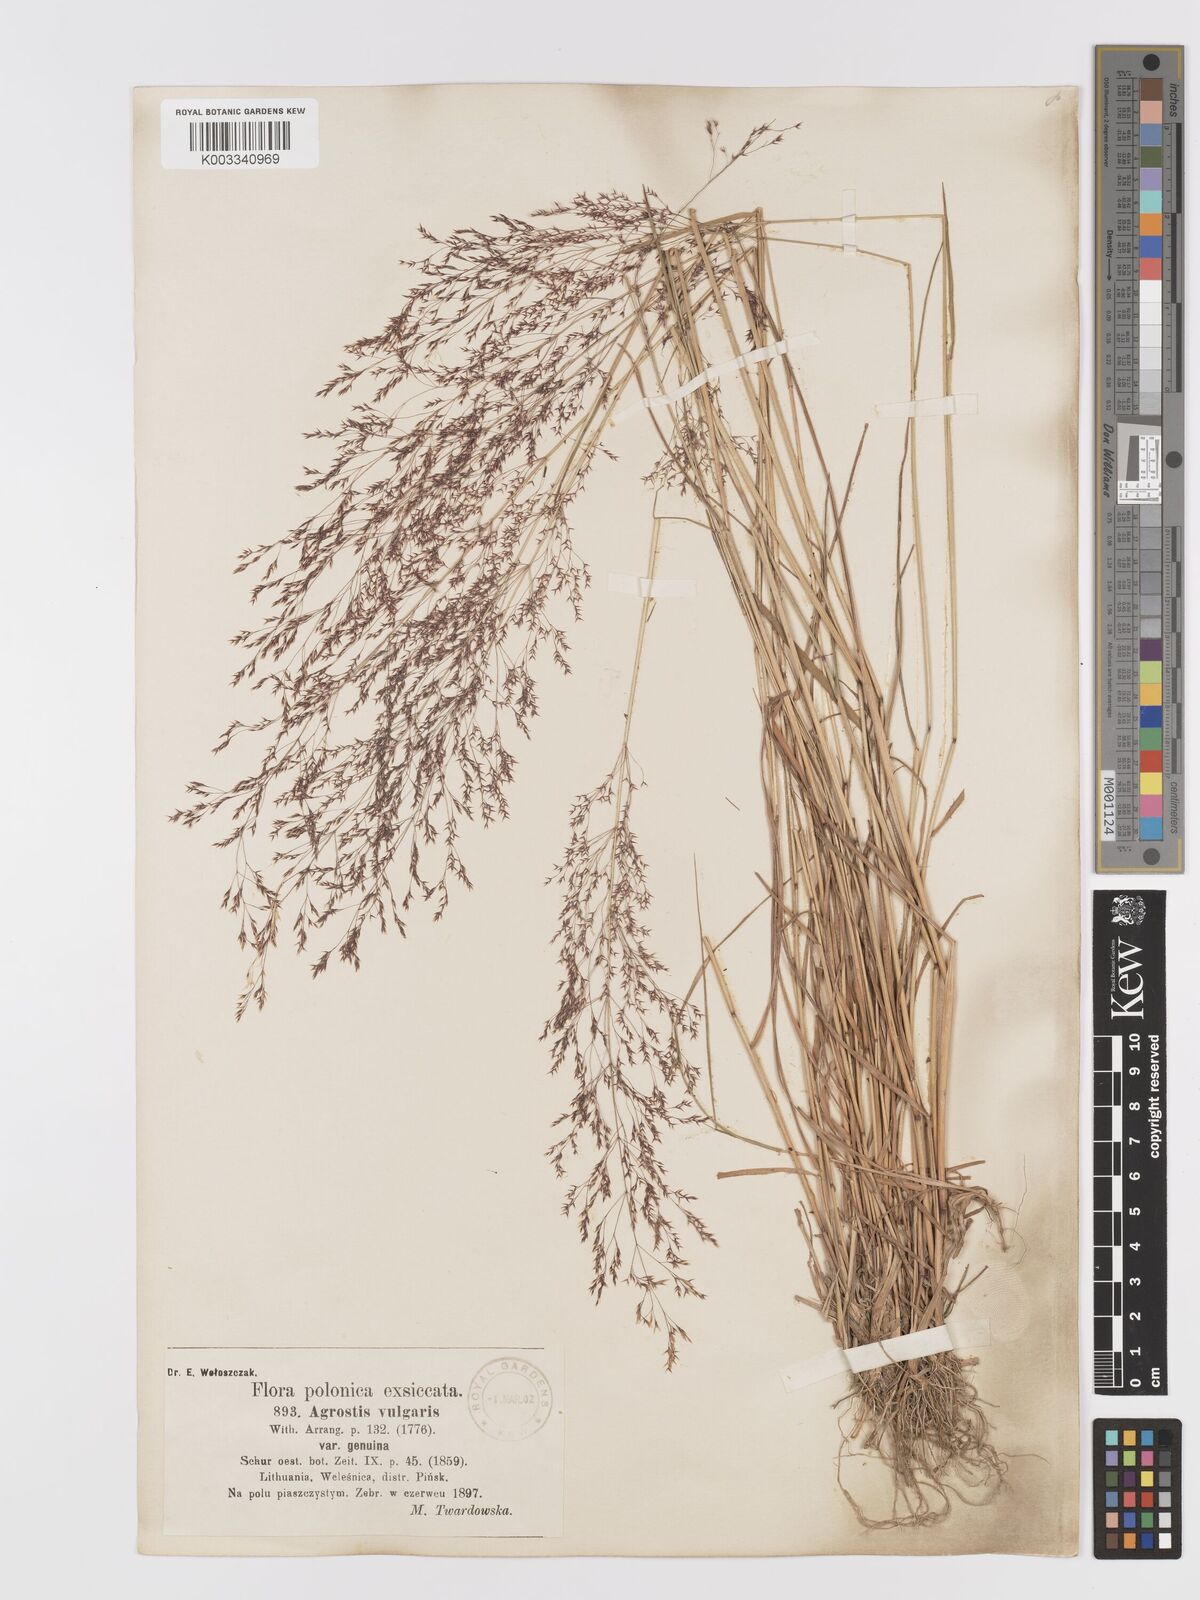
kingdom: Plantae
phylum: Tracheophyta
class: Liliopsida
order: Poales
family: Poaceae
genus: Agrostis
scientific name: Agrostis capillaris
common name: Colonial bentgrass
